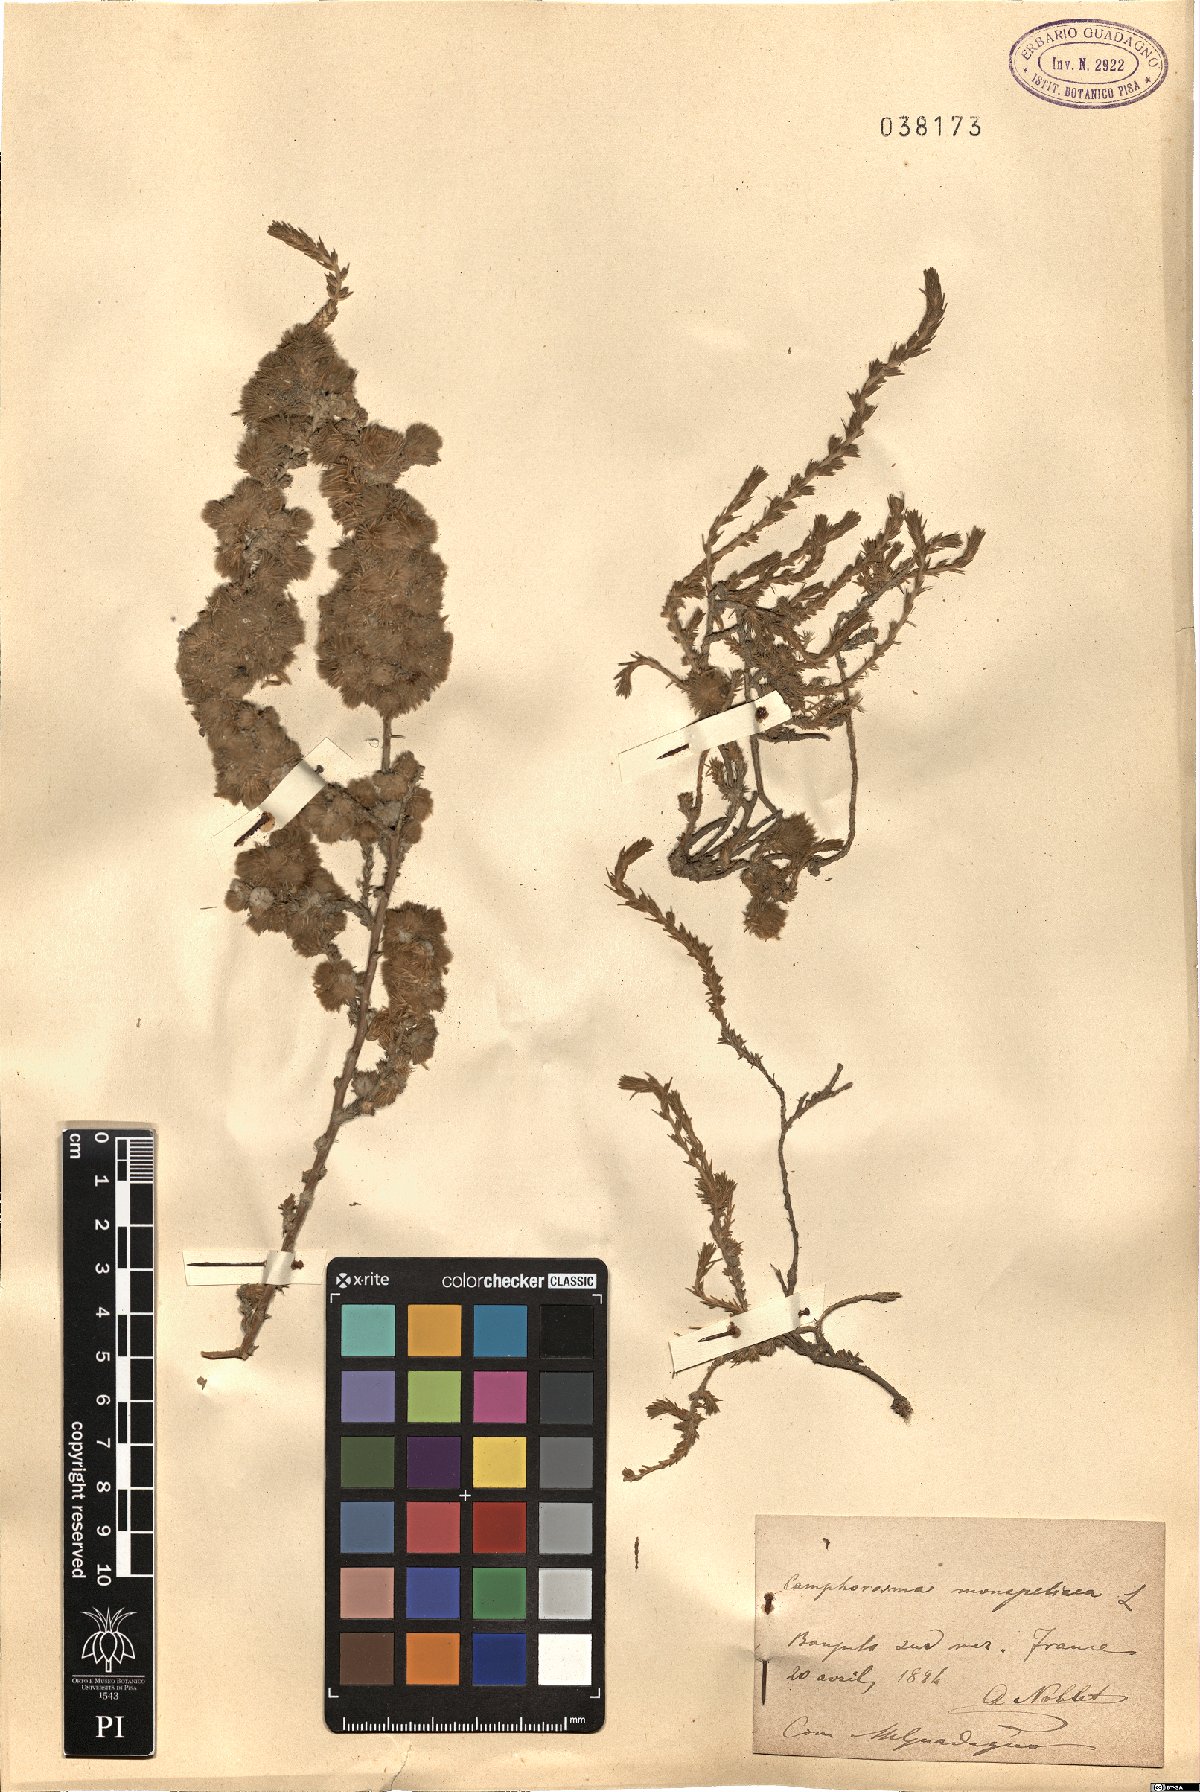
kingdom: Plantae
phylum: Tracheophyta
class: Magnoliopsida
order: Caryophyllales
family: Amaranthaceae
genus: Camphorosma
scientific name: Camphorosma monspeliaca
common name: Camphorfume
